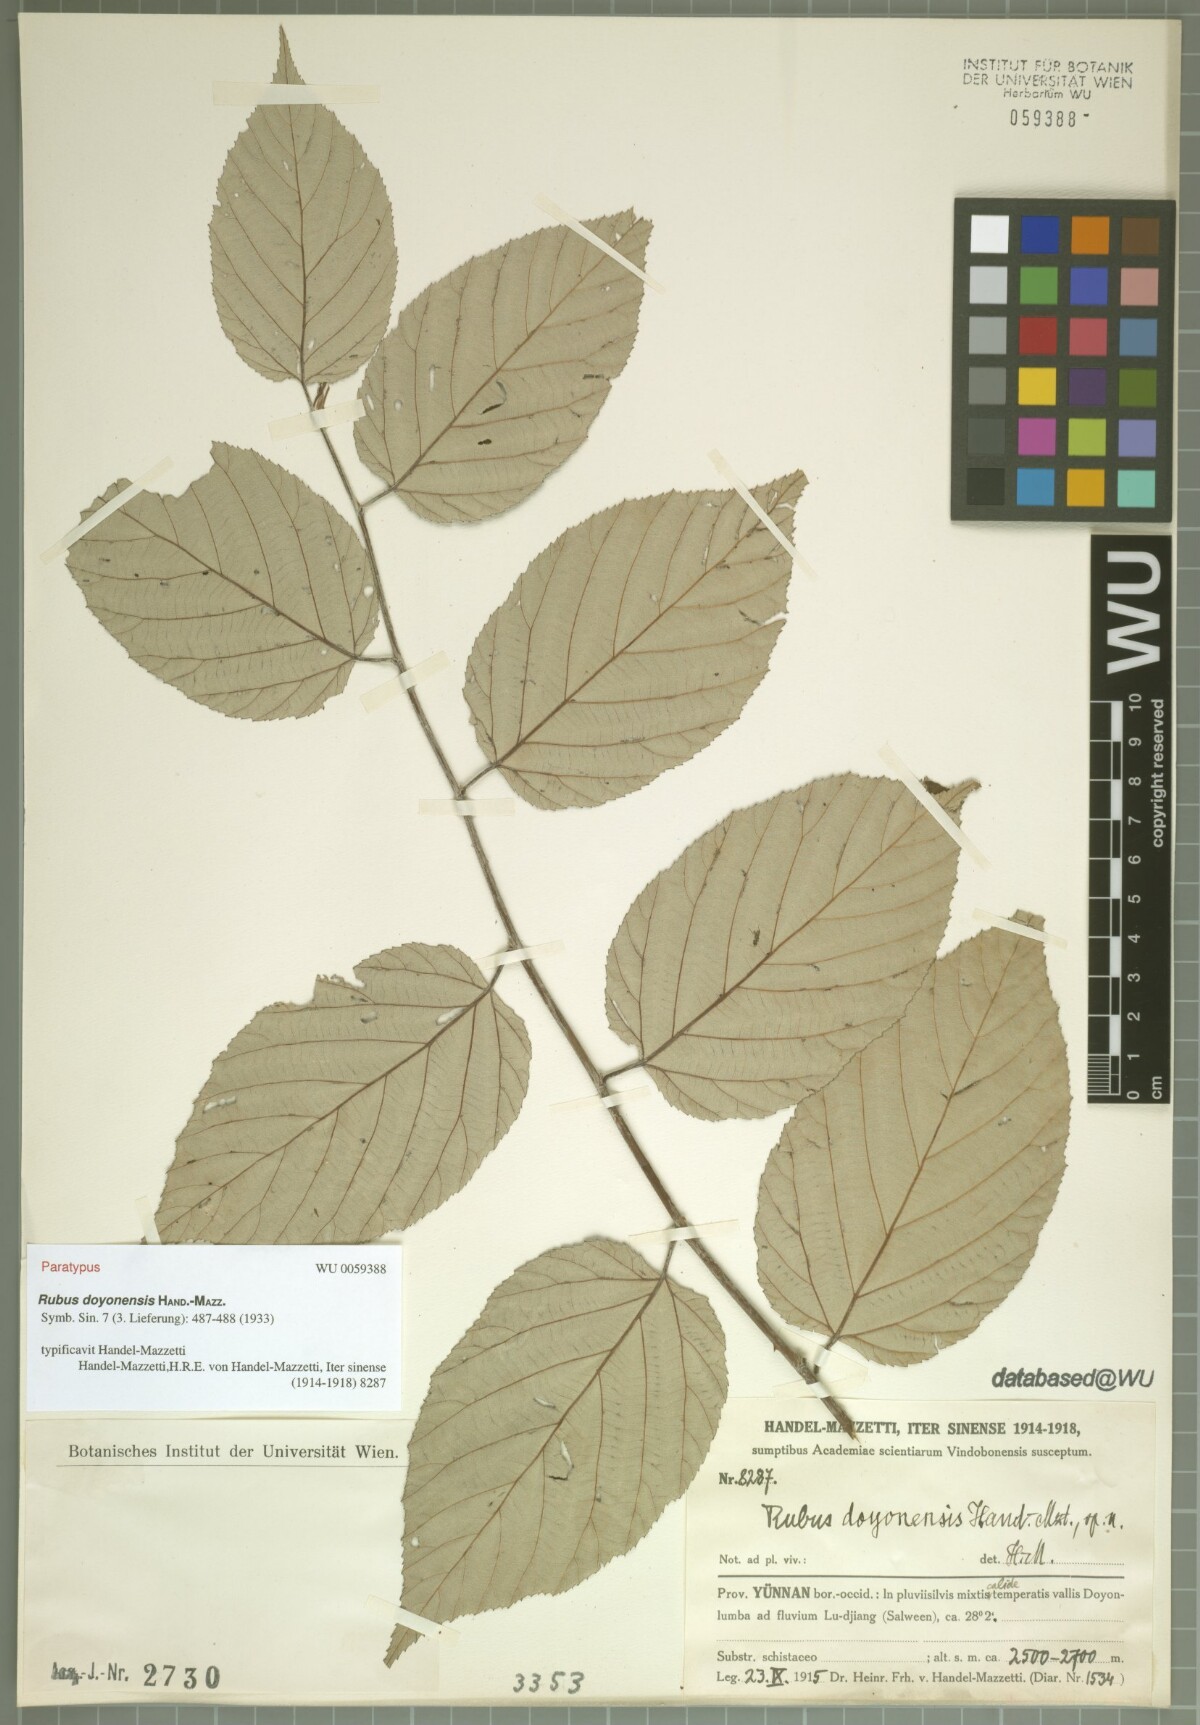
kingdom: Plantae
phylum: Tracheophyta
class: Magnoliopsida
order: Rosales
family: Rosaceae
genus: Rubus
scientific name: Rubus doyonensis
